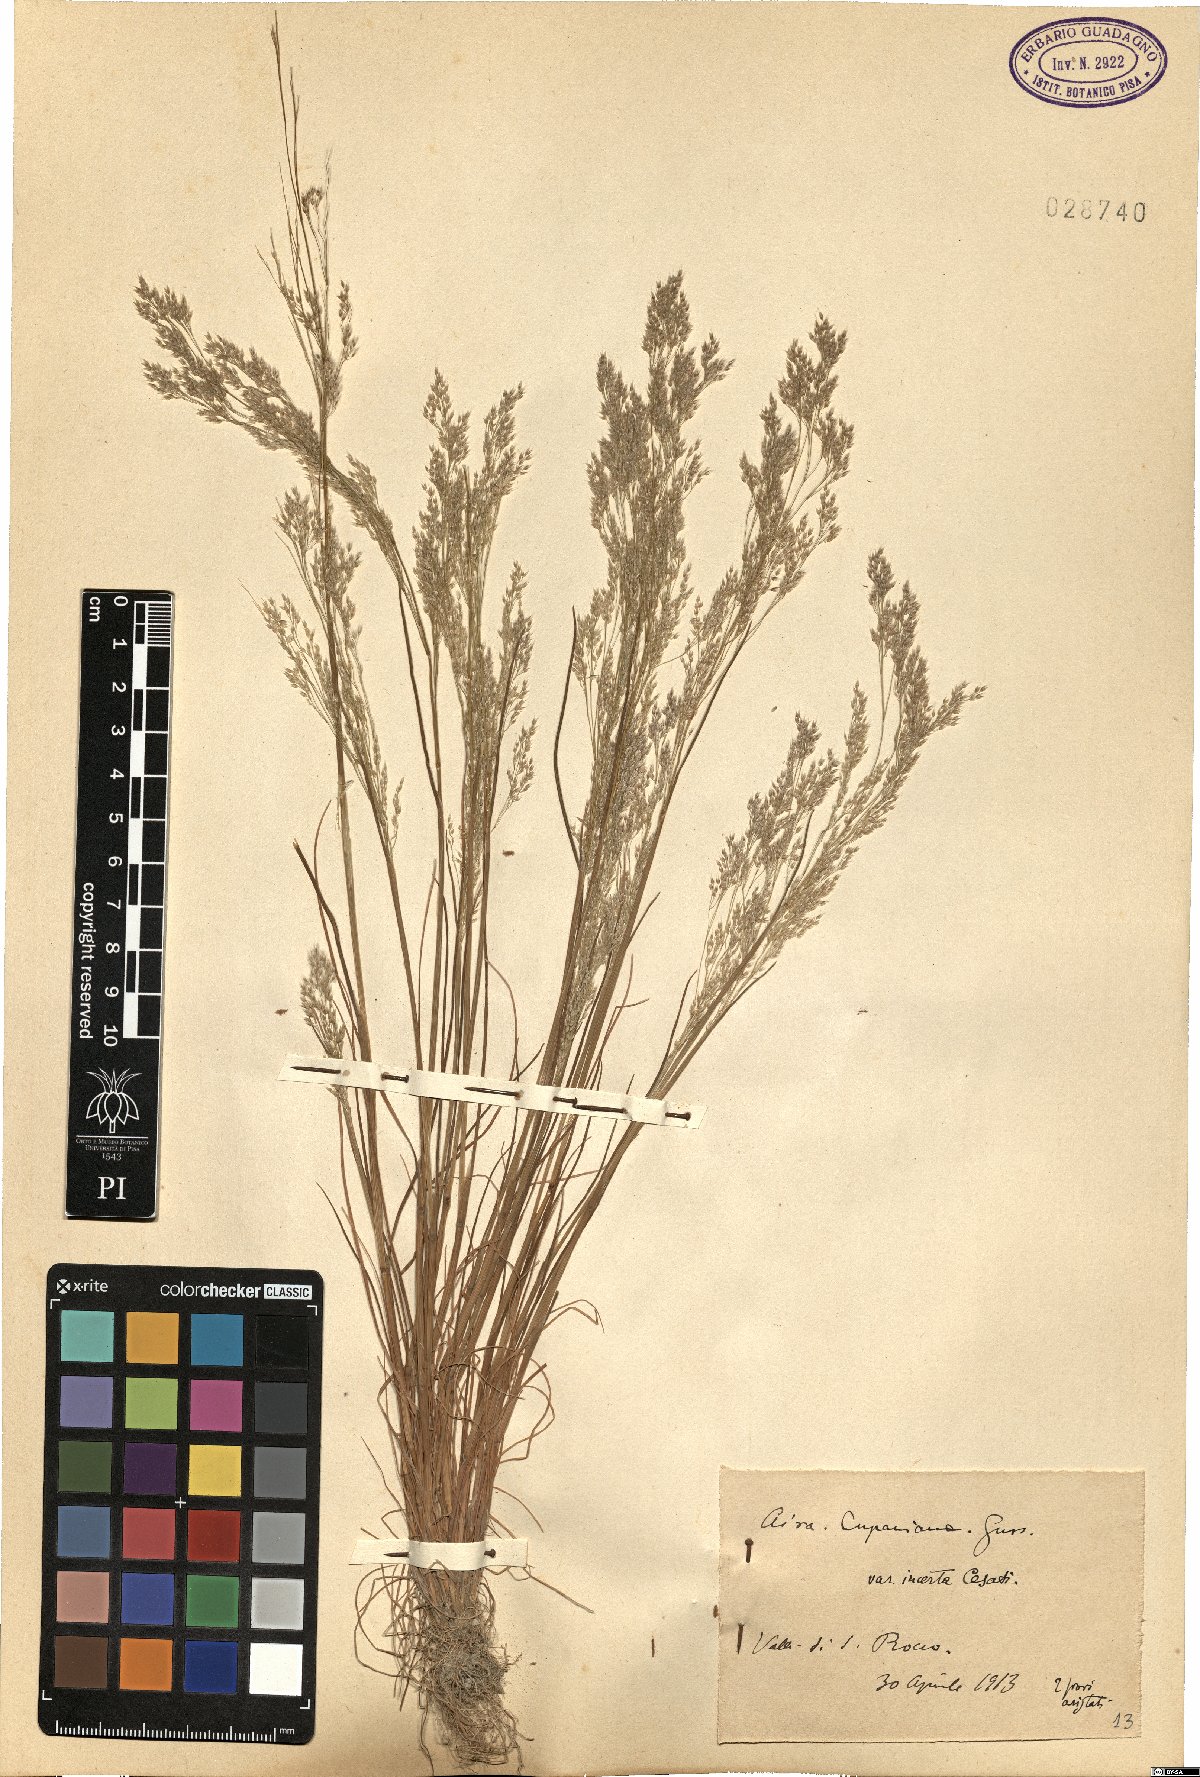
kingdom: Plantae
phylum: Tracheophyta
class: Liliopsida
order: Poales
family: Poaceae
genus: Aira
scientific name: Aira cupaniana
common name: Silver hairgrass
